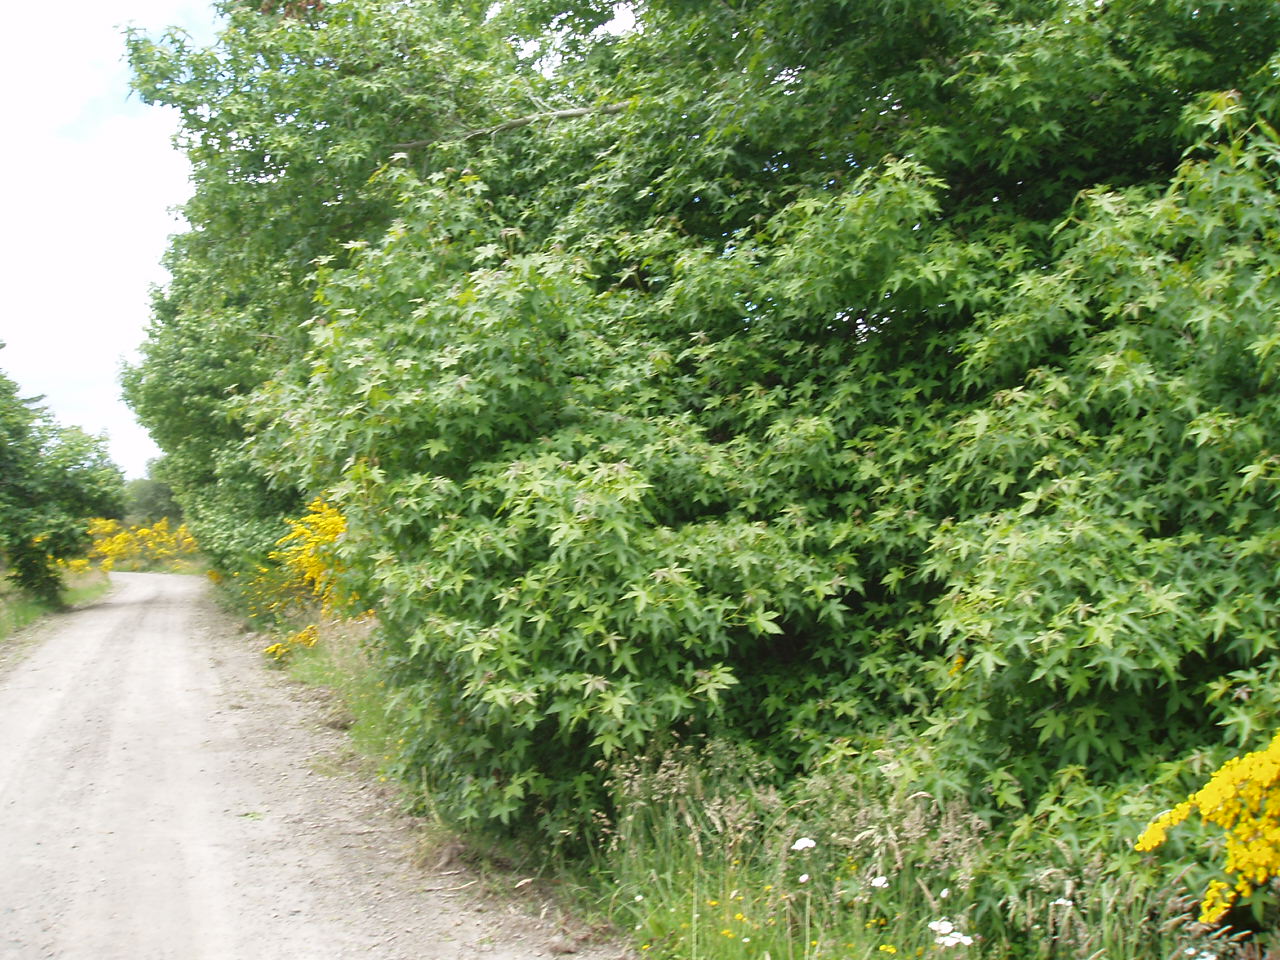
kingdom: Plantae
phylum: Tracheophyta
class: Magnoliopsida
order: Saxifragales
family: Altingiaceae
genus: Liquidambar
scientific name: Liquidambar styraciflua
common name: Sweet gum
